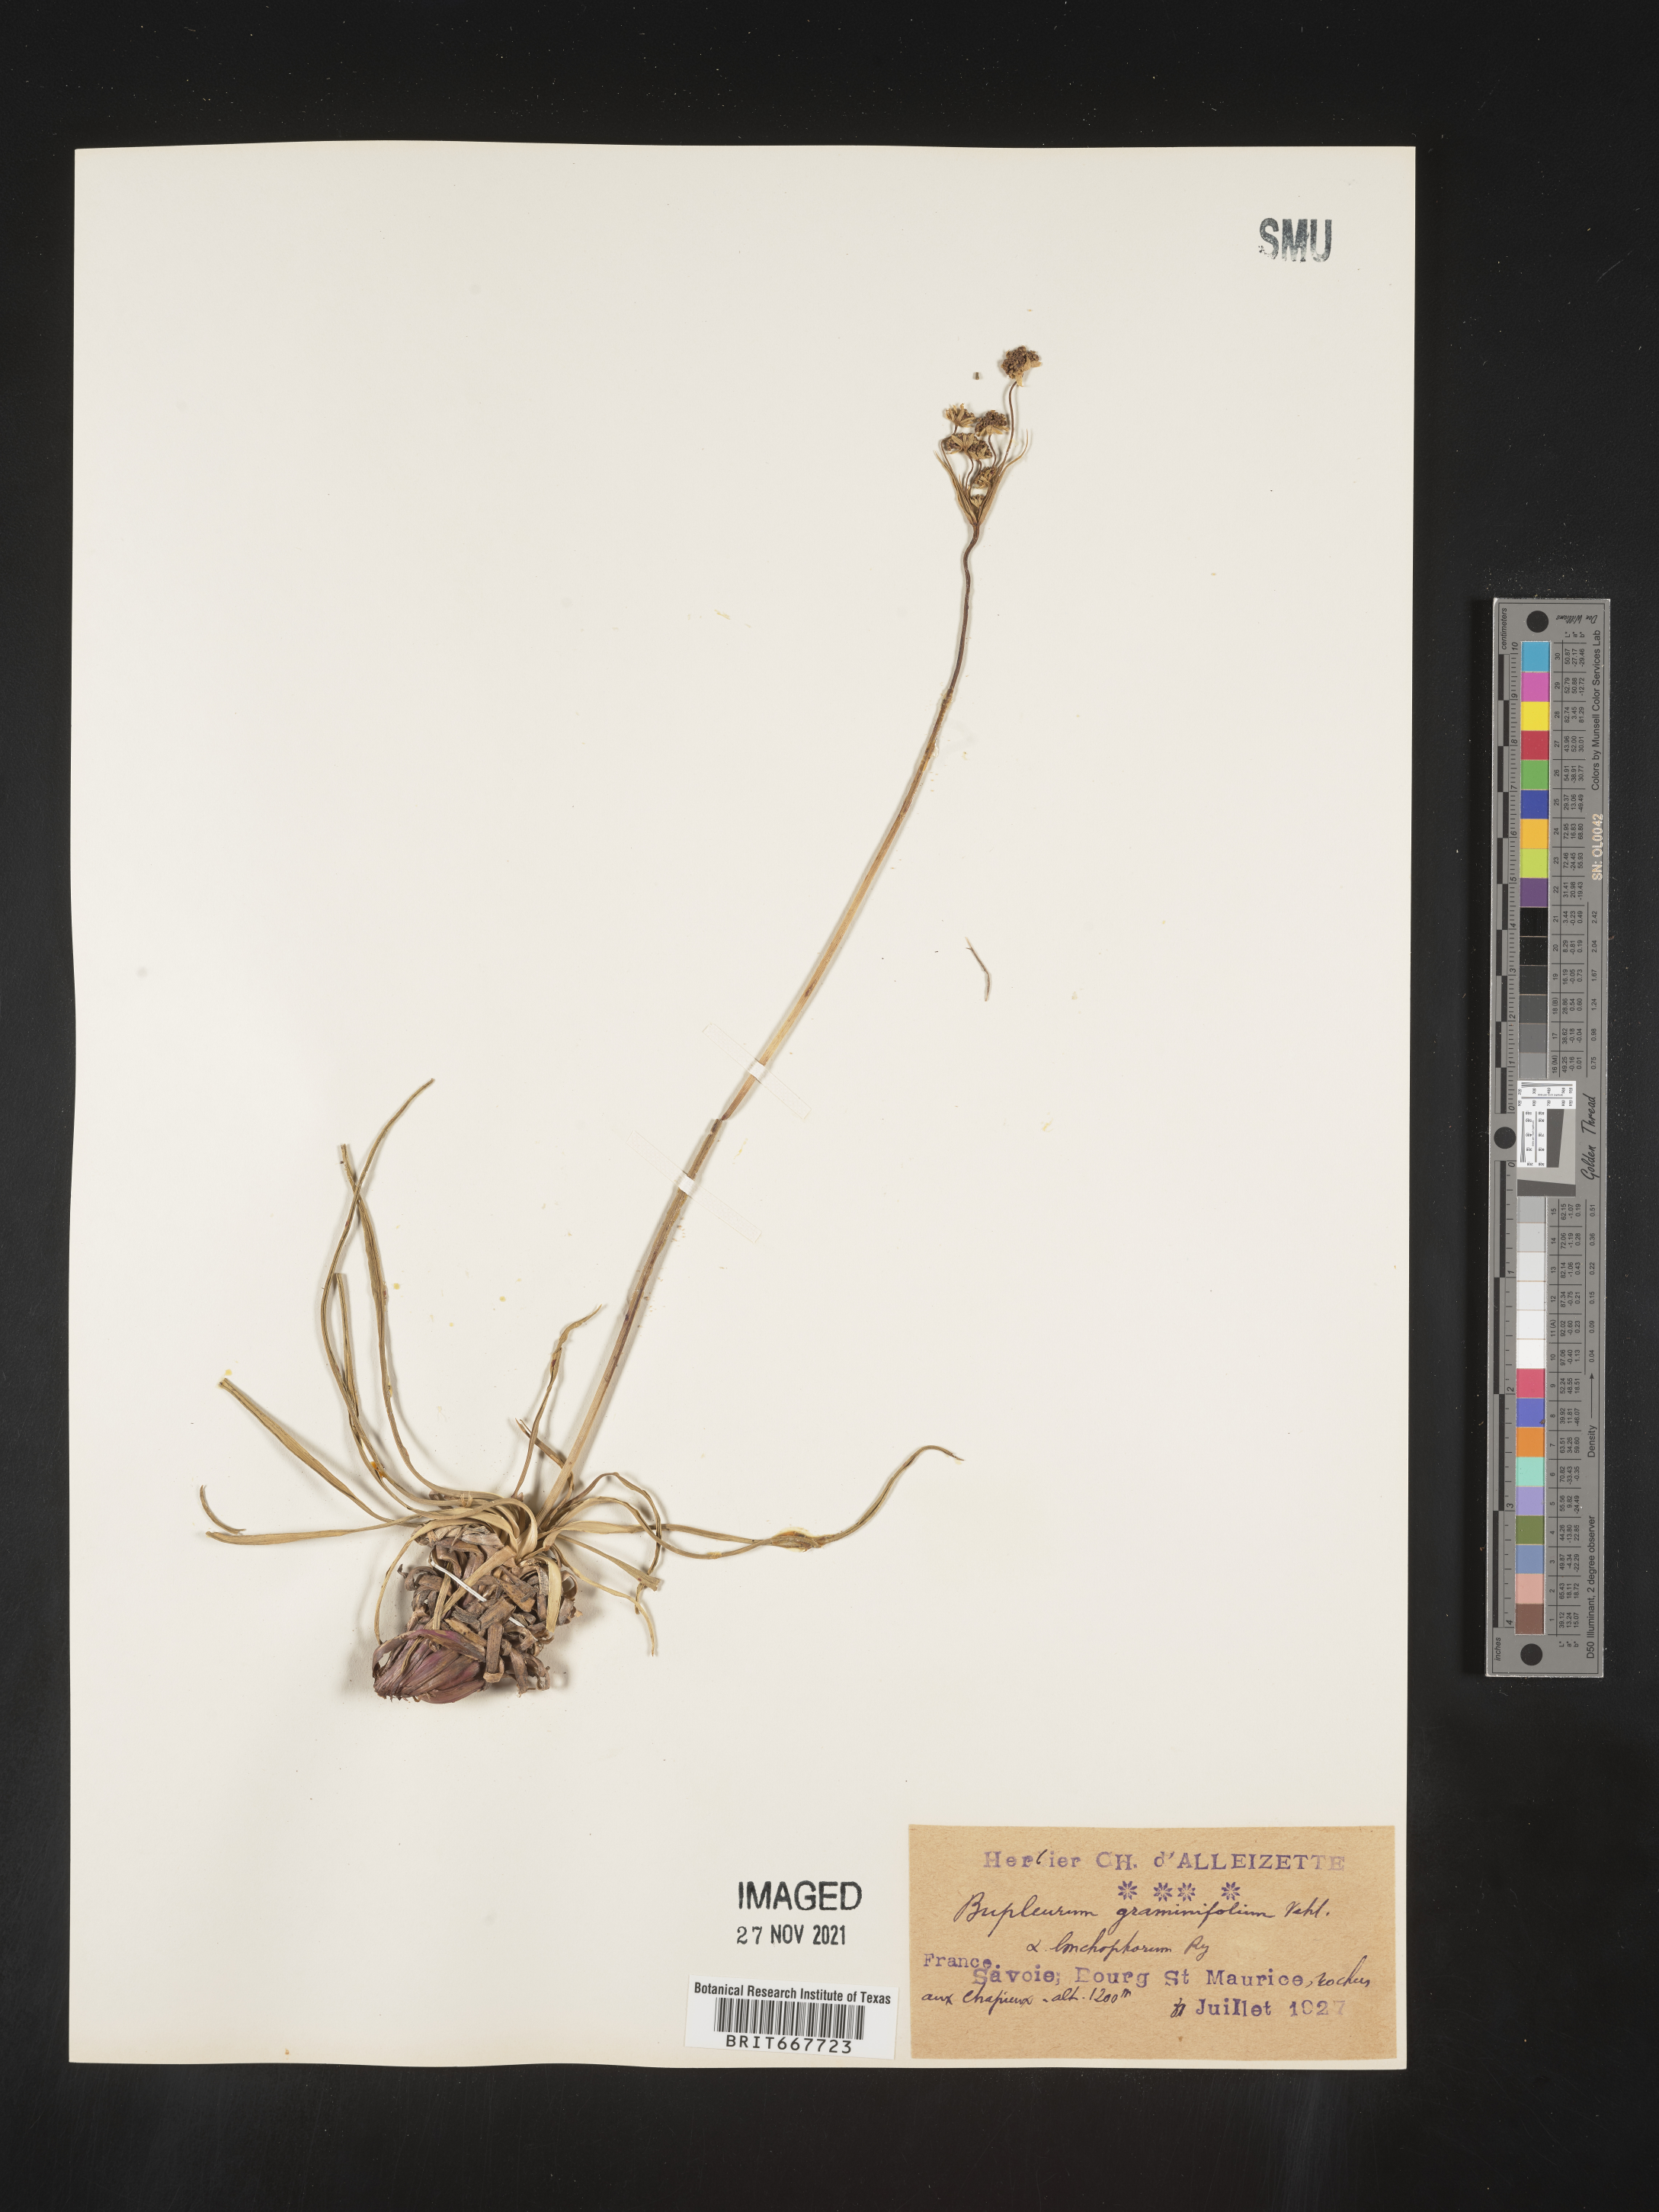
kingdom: Plantae
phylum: Tracheophyta
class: Magnoliopsida
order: Apiales
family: Apiaceae
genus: Bupleurum
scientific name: Bupleurum
